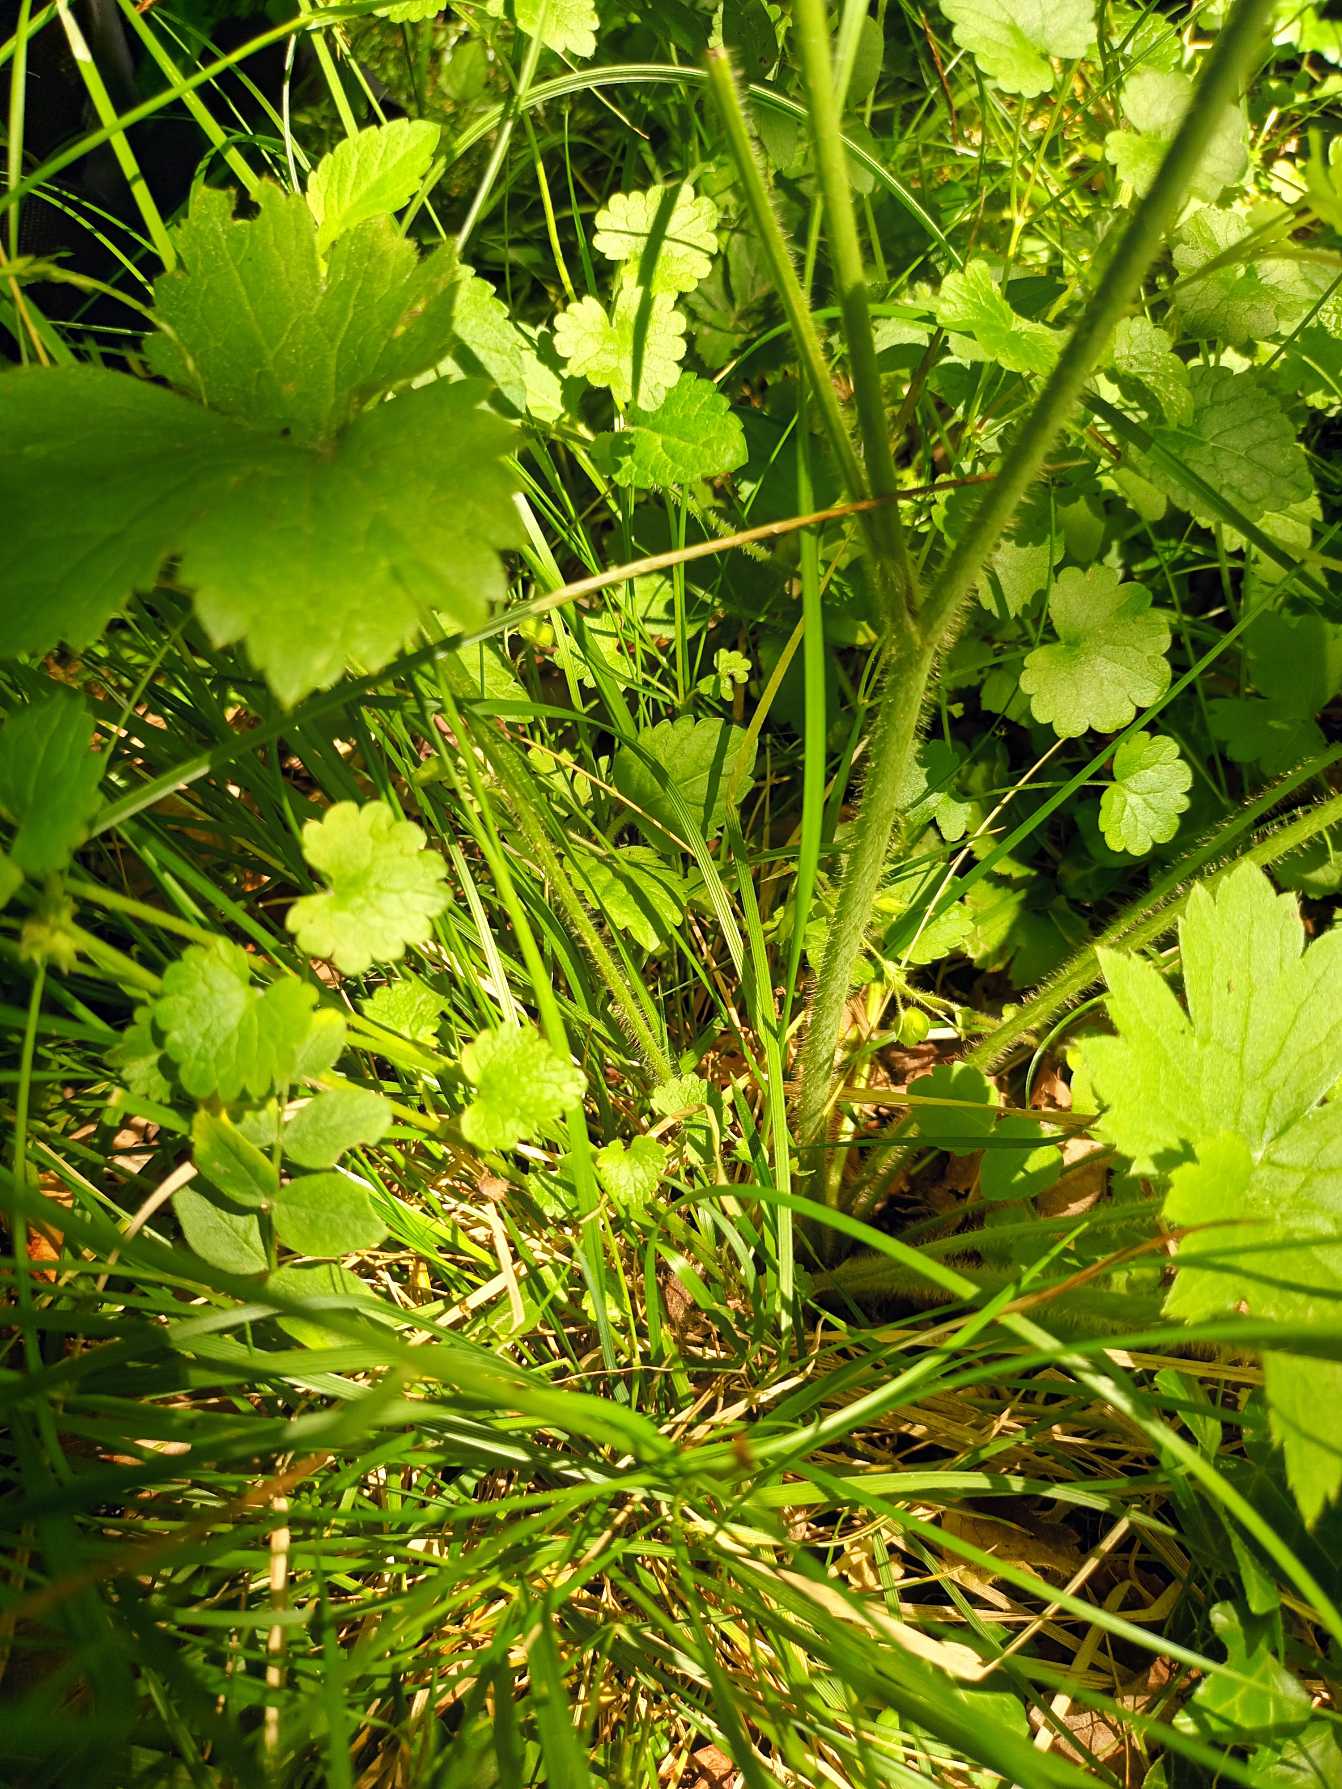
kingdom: Plantae
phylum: Tracheophyta
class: Magnoliopsida
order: Ranunculales
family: Ranunculaceae
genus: Ranunculus
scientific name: Ranunculus lanuginosus
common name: Uldhåret ranunkel
